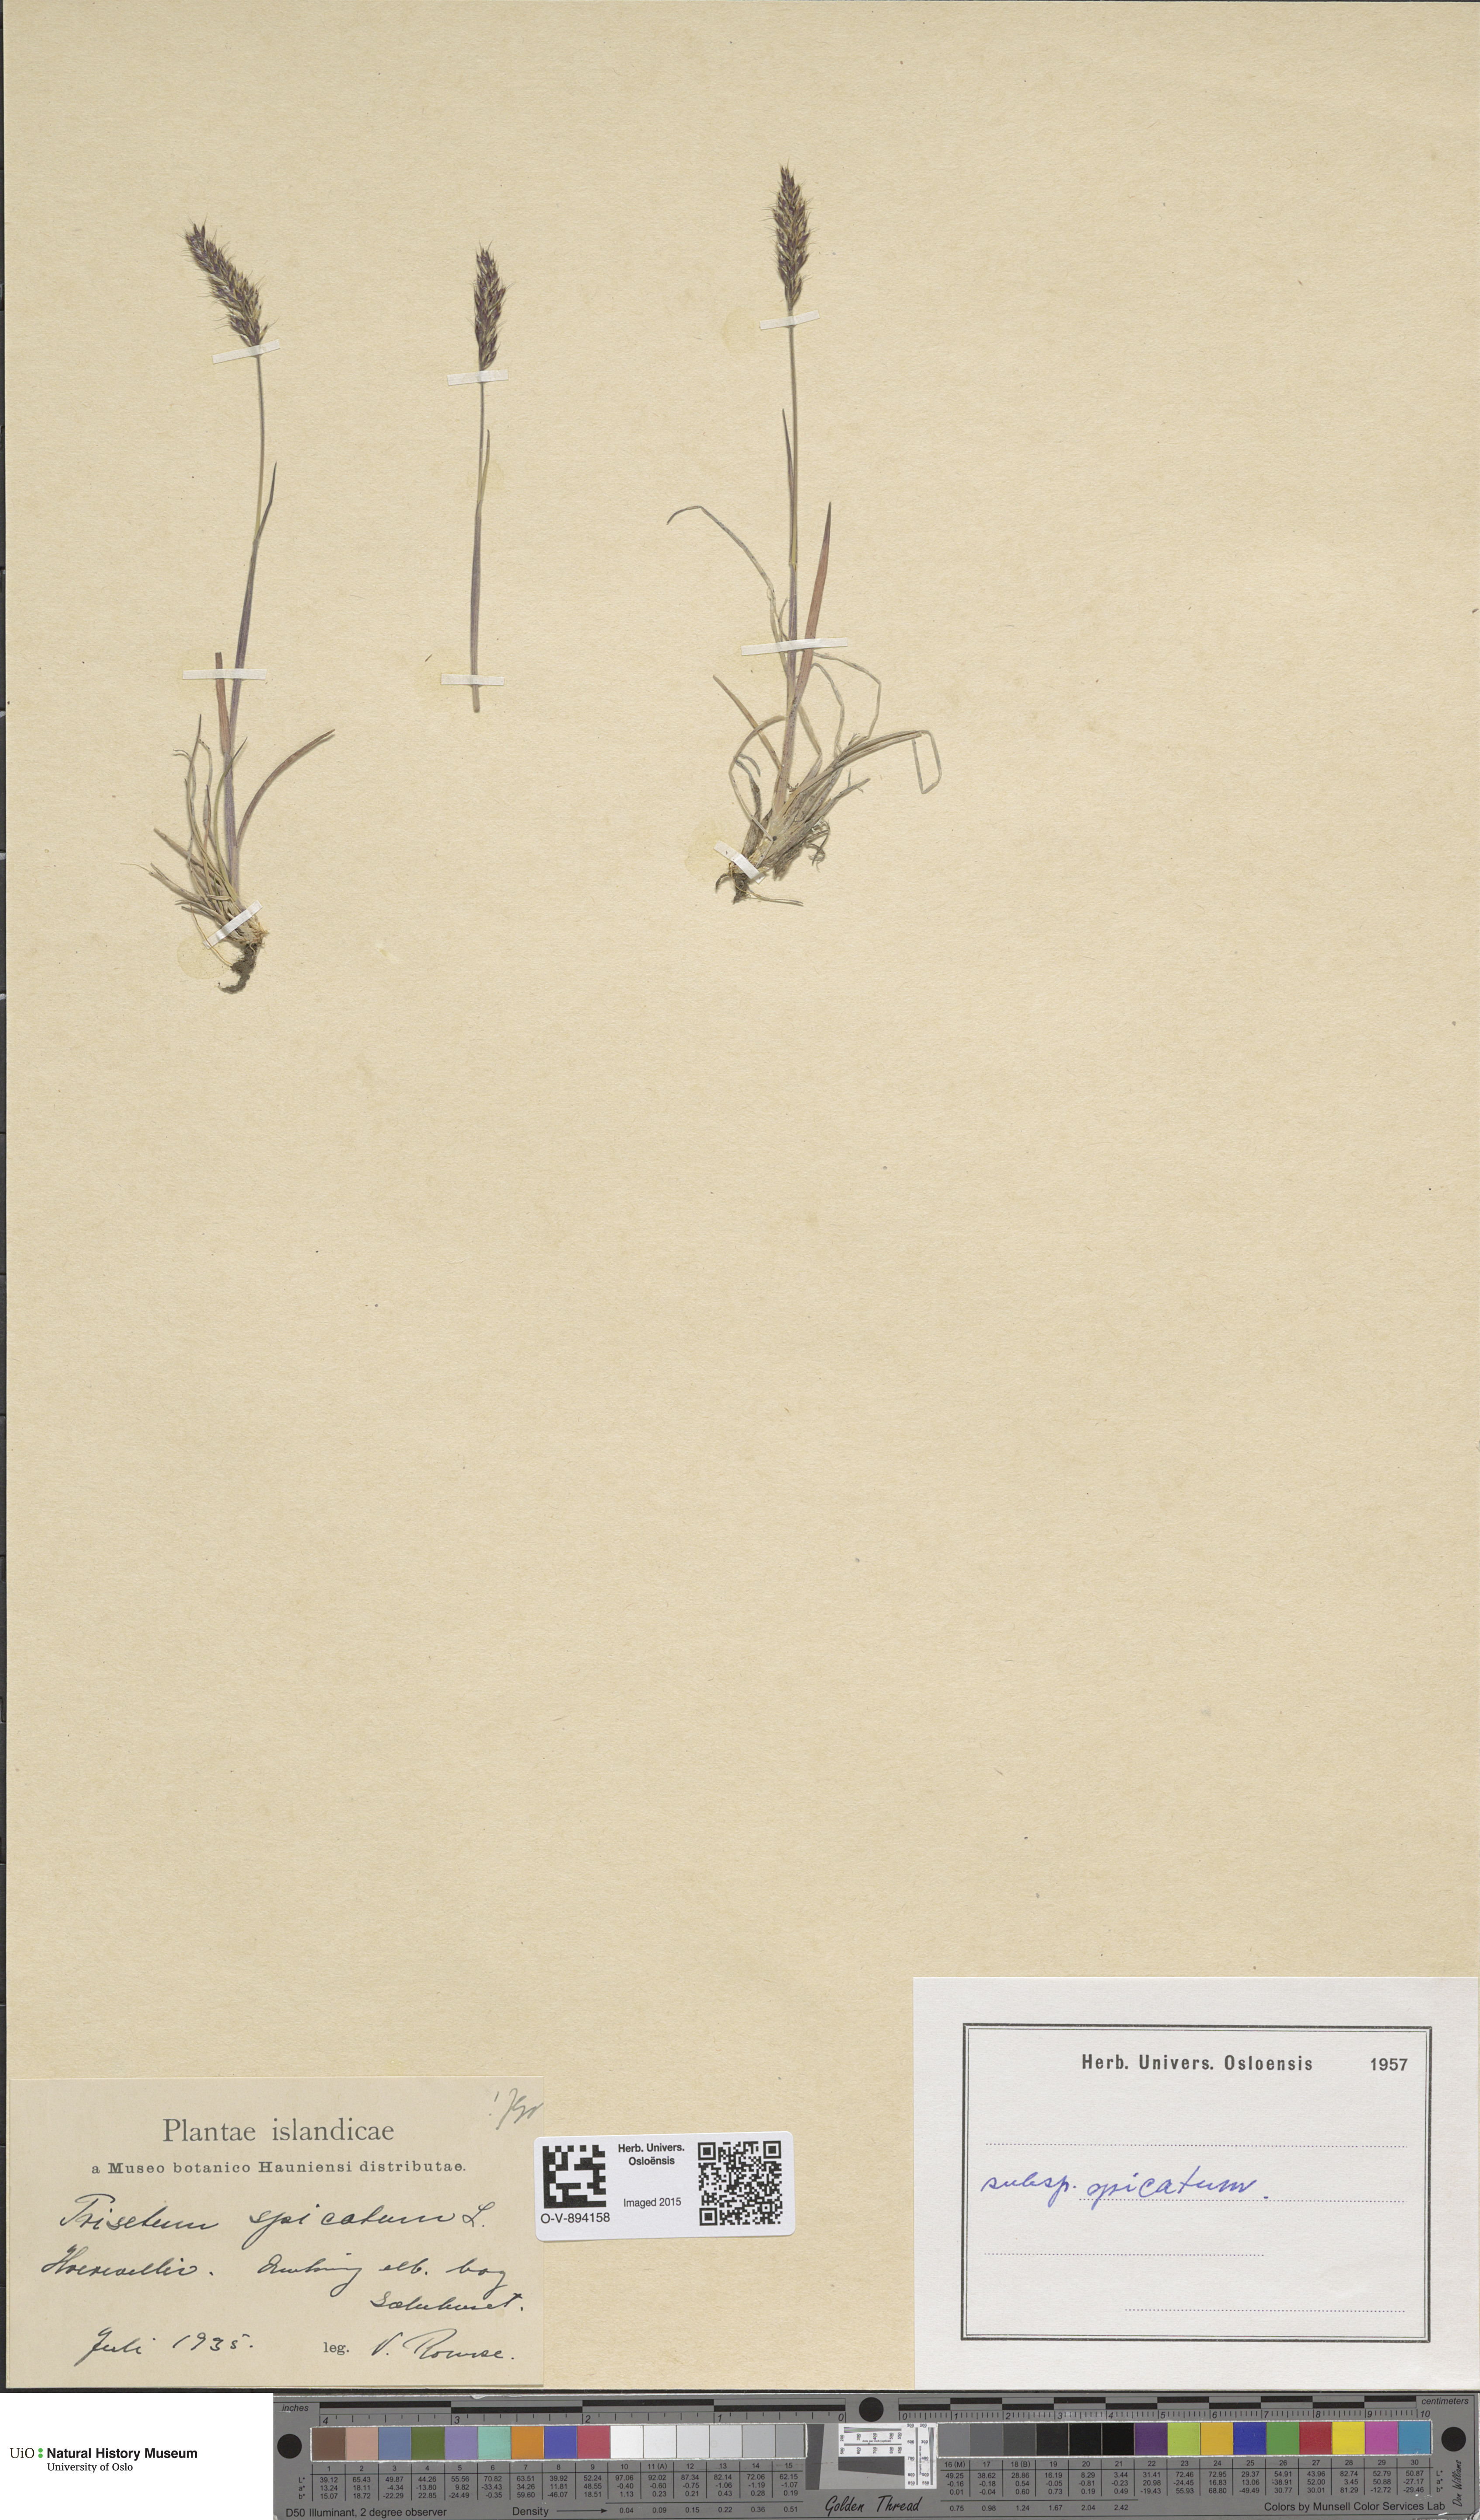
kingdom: Plantae
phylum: Tracheophyta
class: Liliopsida
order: Poales
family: Poaceae
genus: Koeleria
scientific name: Koeleria spicata
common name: Mountain trisetum
